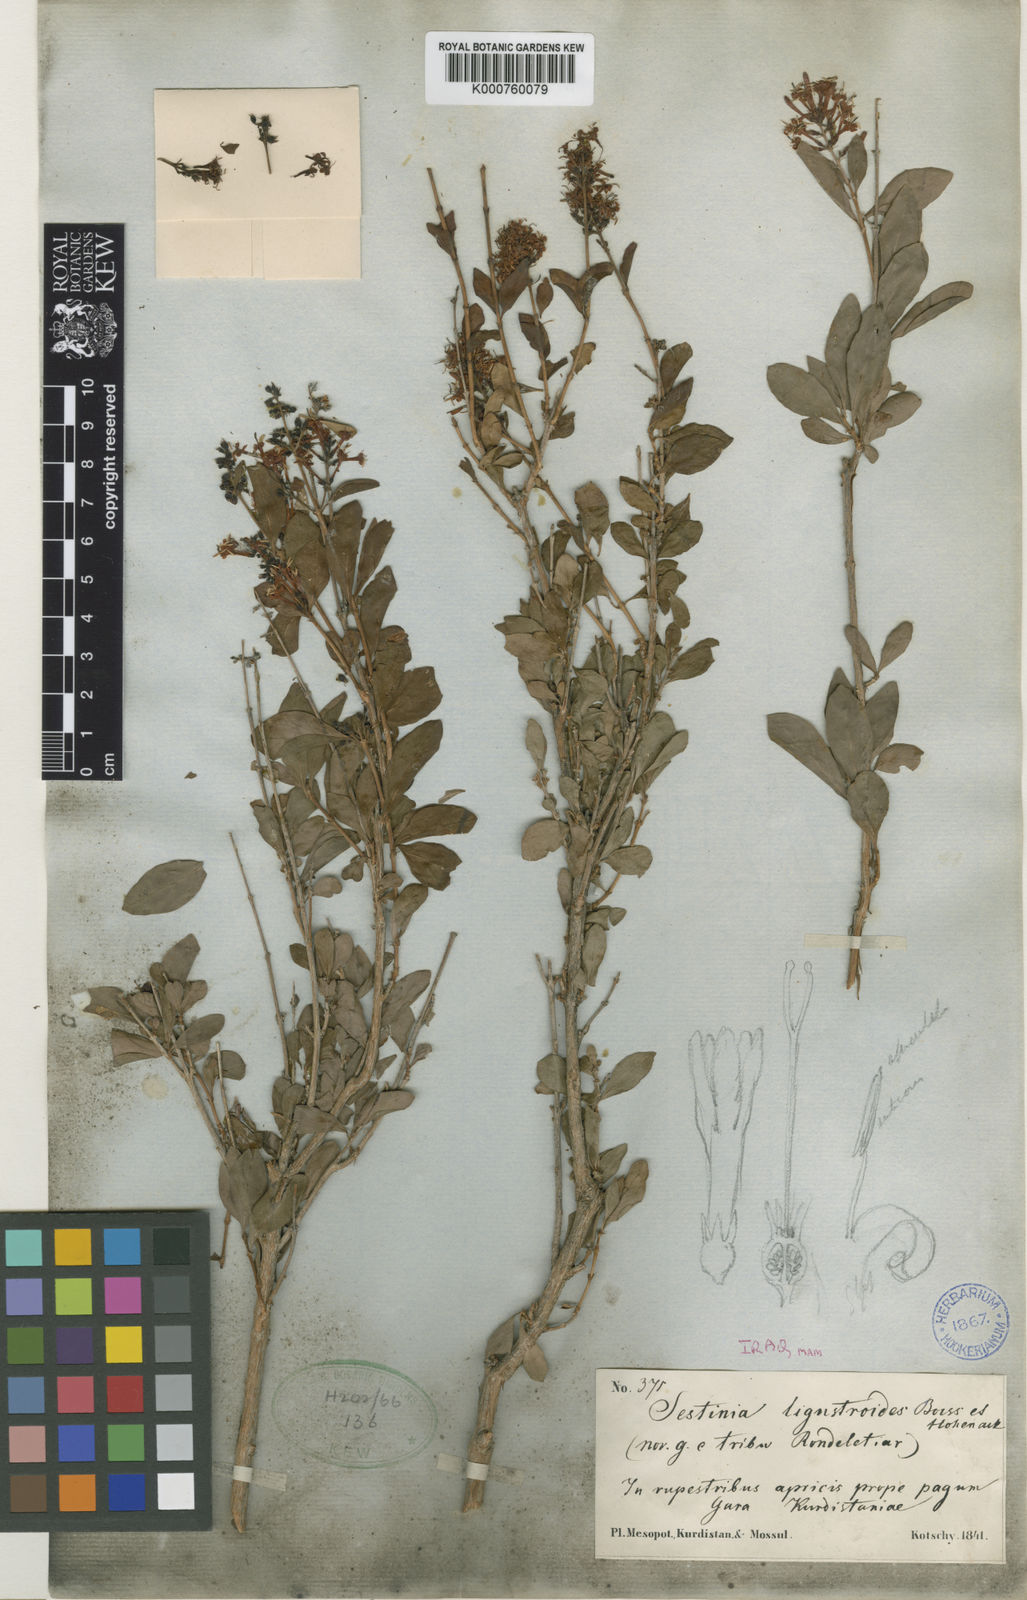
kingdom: Plantae
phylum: Tracheophyta
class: Magnoliopsida
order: Gentianales
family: Rubiaceae
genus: Wendlandia
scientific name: Wendlandia ligustroides
